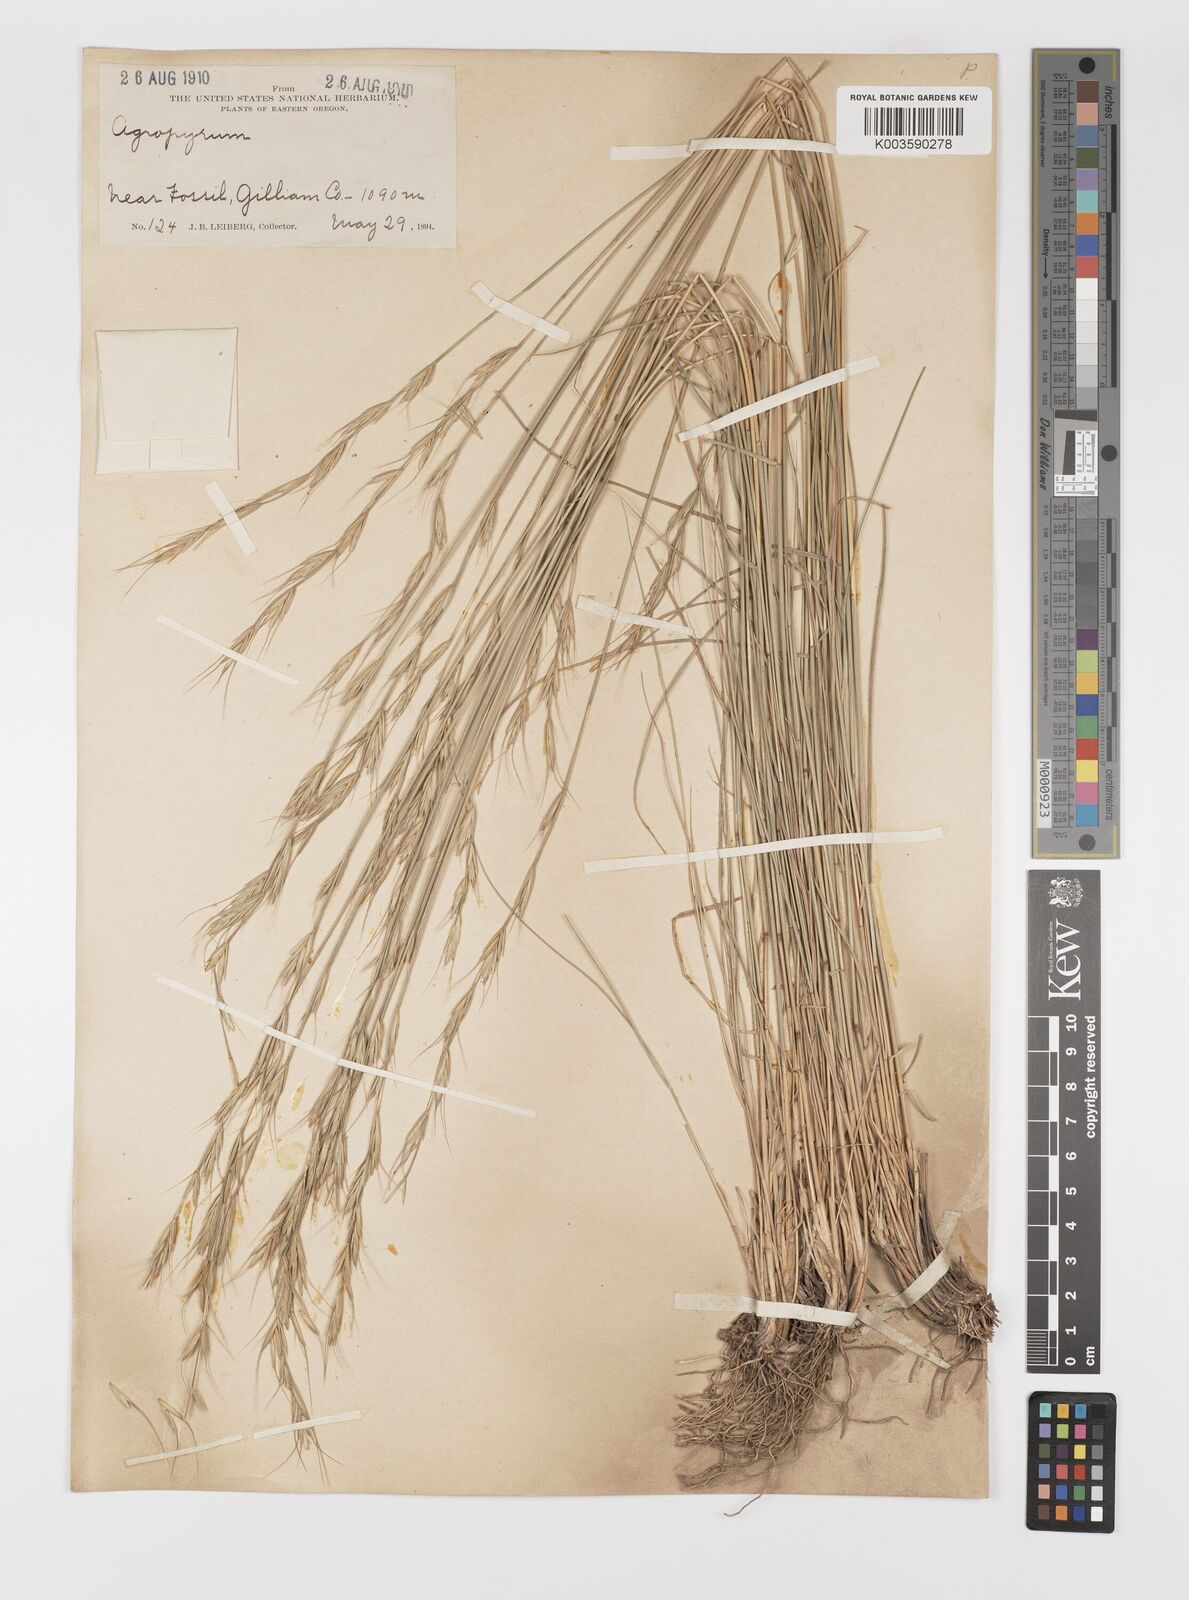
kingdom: Plantae
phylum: Tracheophyta
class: Liliopsida
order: Poales
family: Poaceae
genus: Elymus
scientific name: Elymus
